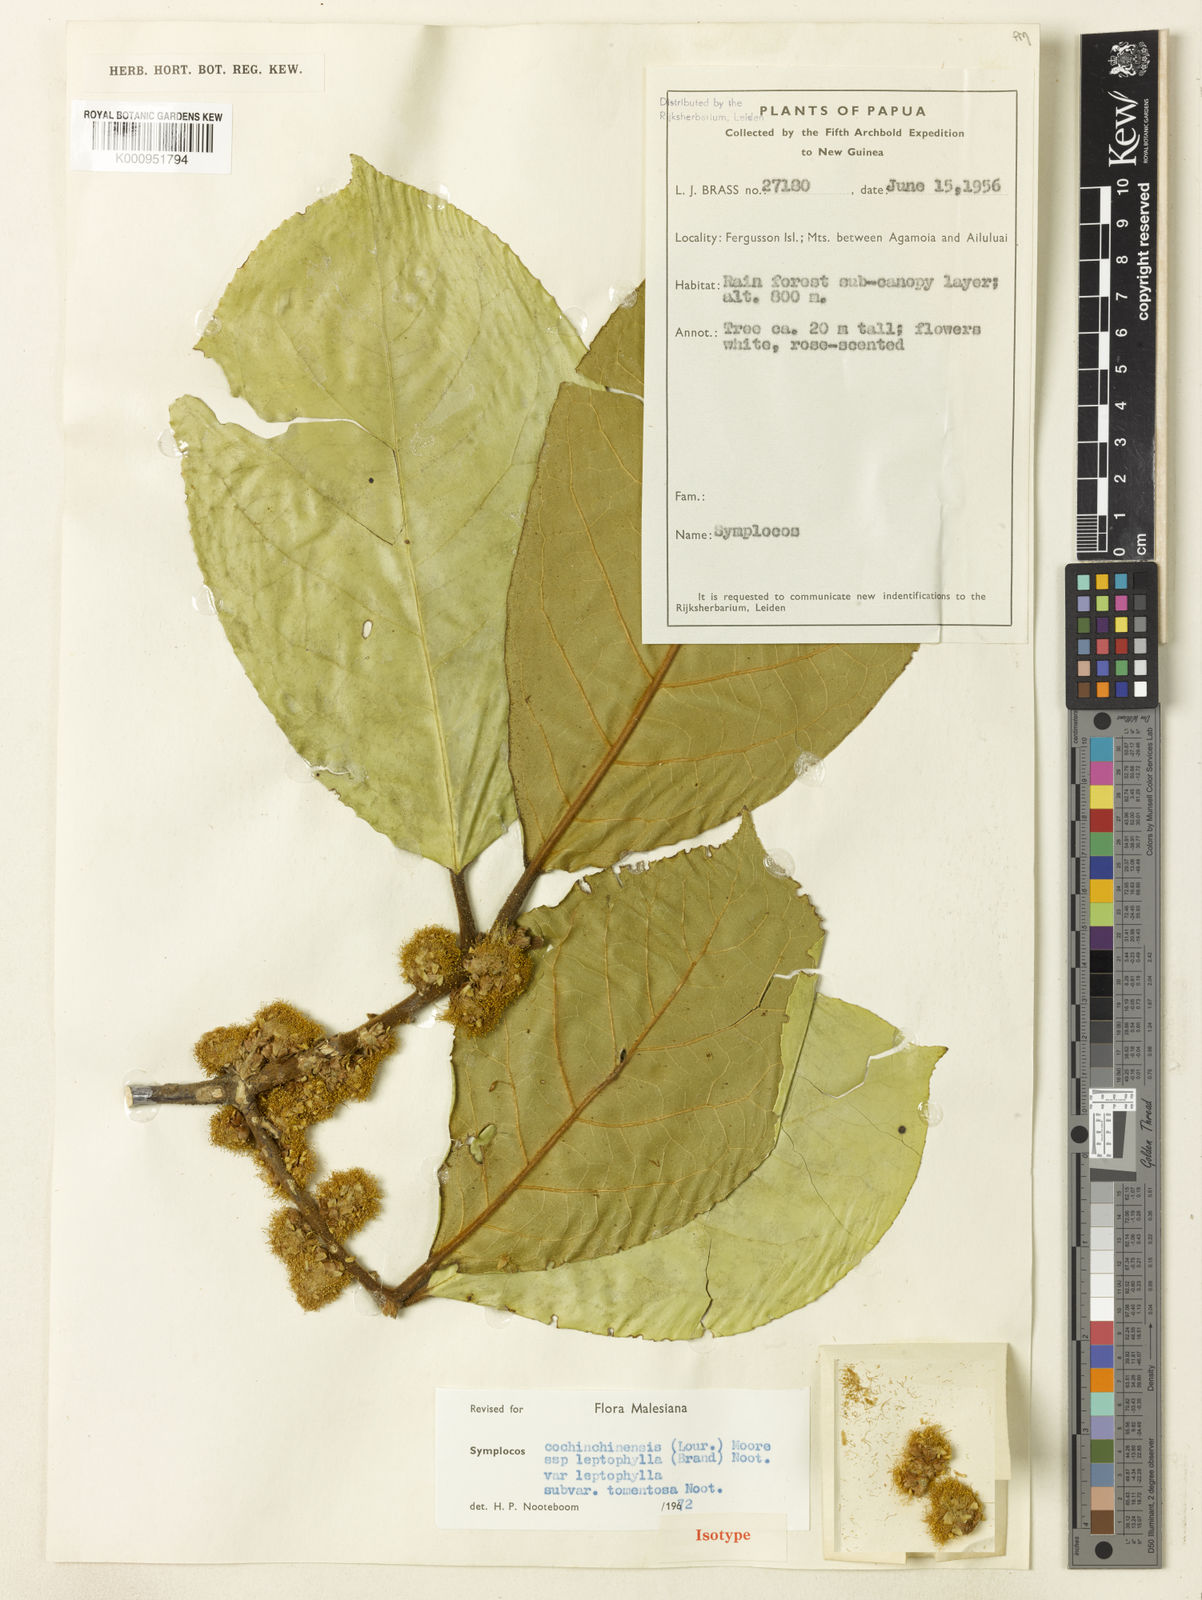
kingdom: Plantae
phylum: Tracheophyta
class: Magnoliopsida
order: Ericales
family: Symplocaceae
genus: Symplocos
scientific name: Symplocos cochinchinensis
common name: Buff hazelwood
